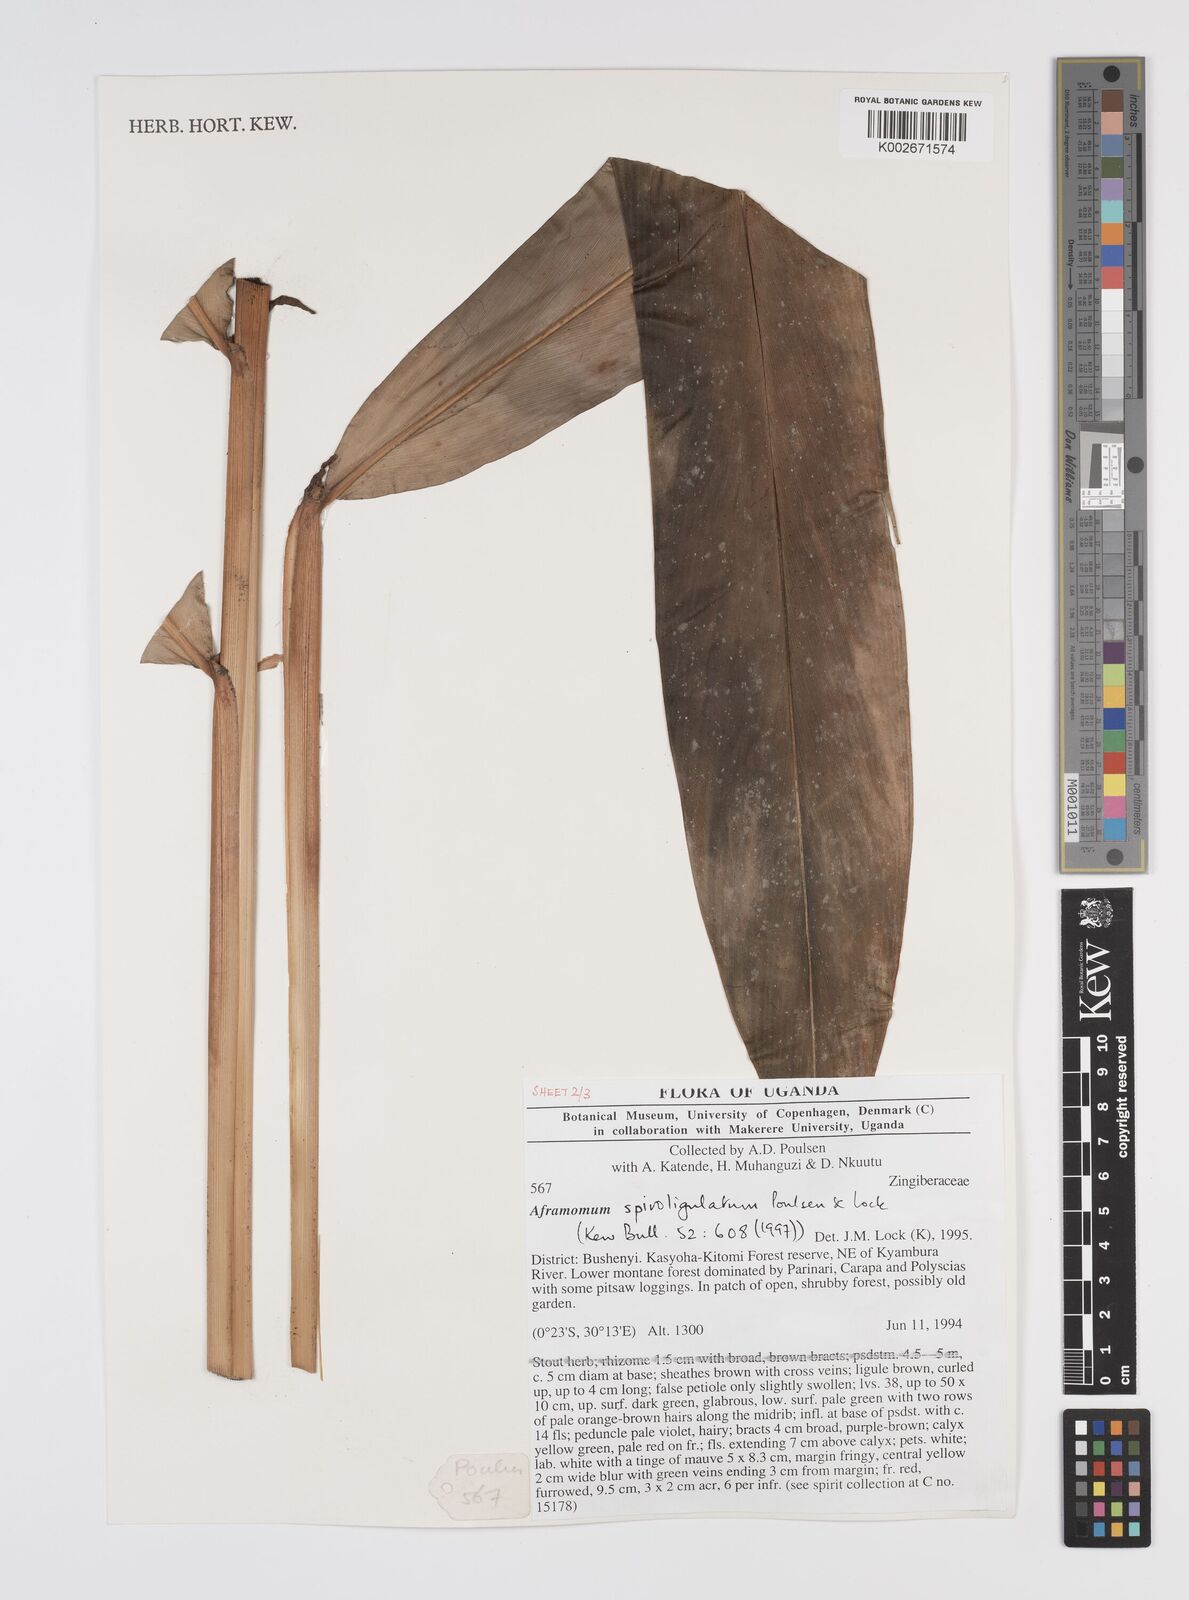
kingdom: Plantae
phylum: Tracheophyta
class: Liliopsida
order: Zingiberales
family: Zingiberaceae
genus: Aframomum
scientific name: Aframomum spiroligulatum
